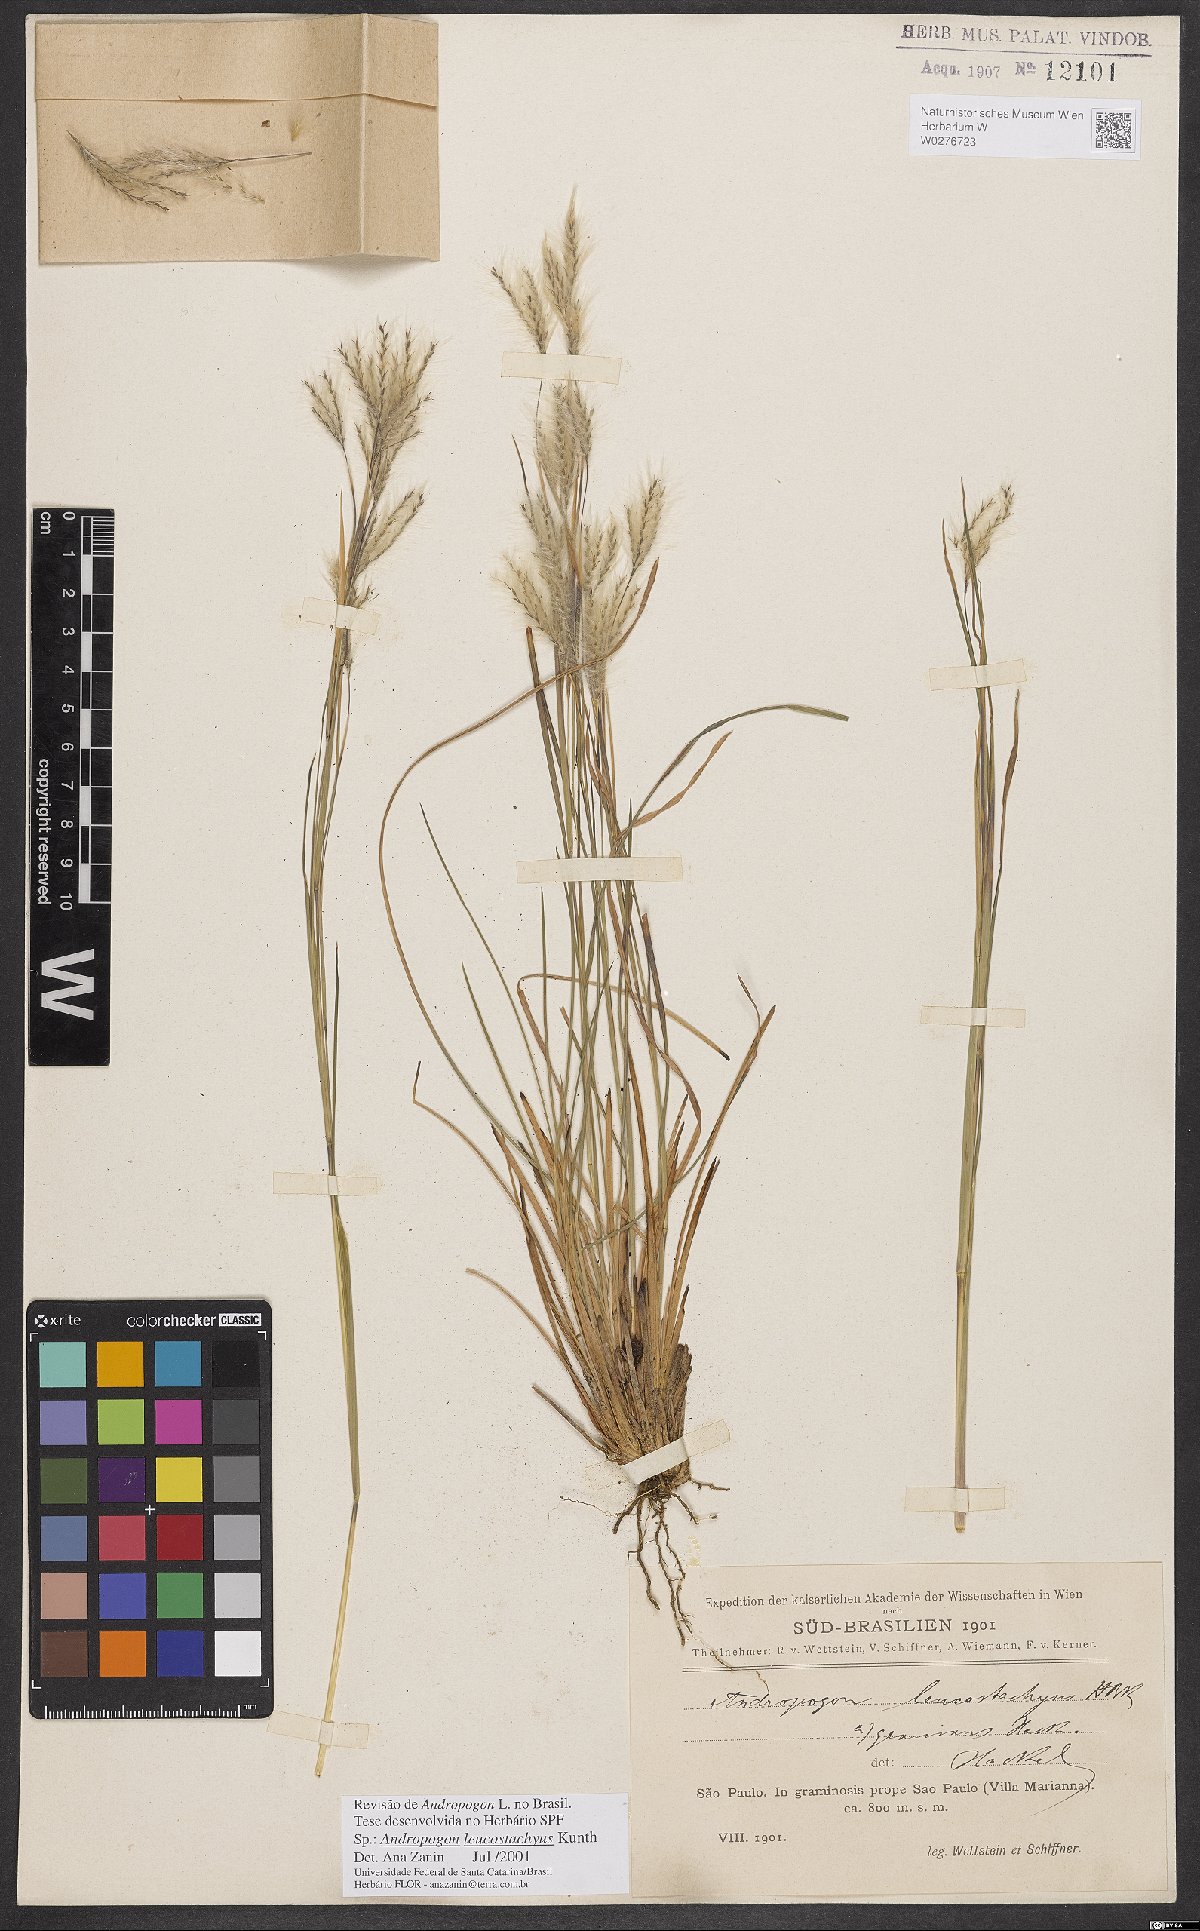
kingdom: Plantae
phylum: Tracheophyta
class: Liliopsida
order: Poales
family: Poaceae
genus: Andropogon
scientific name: Andropogon leucostachyus
